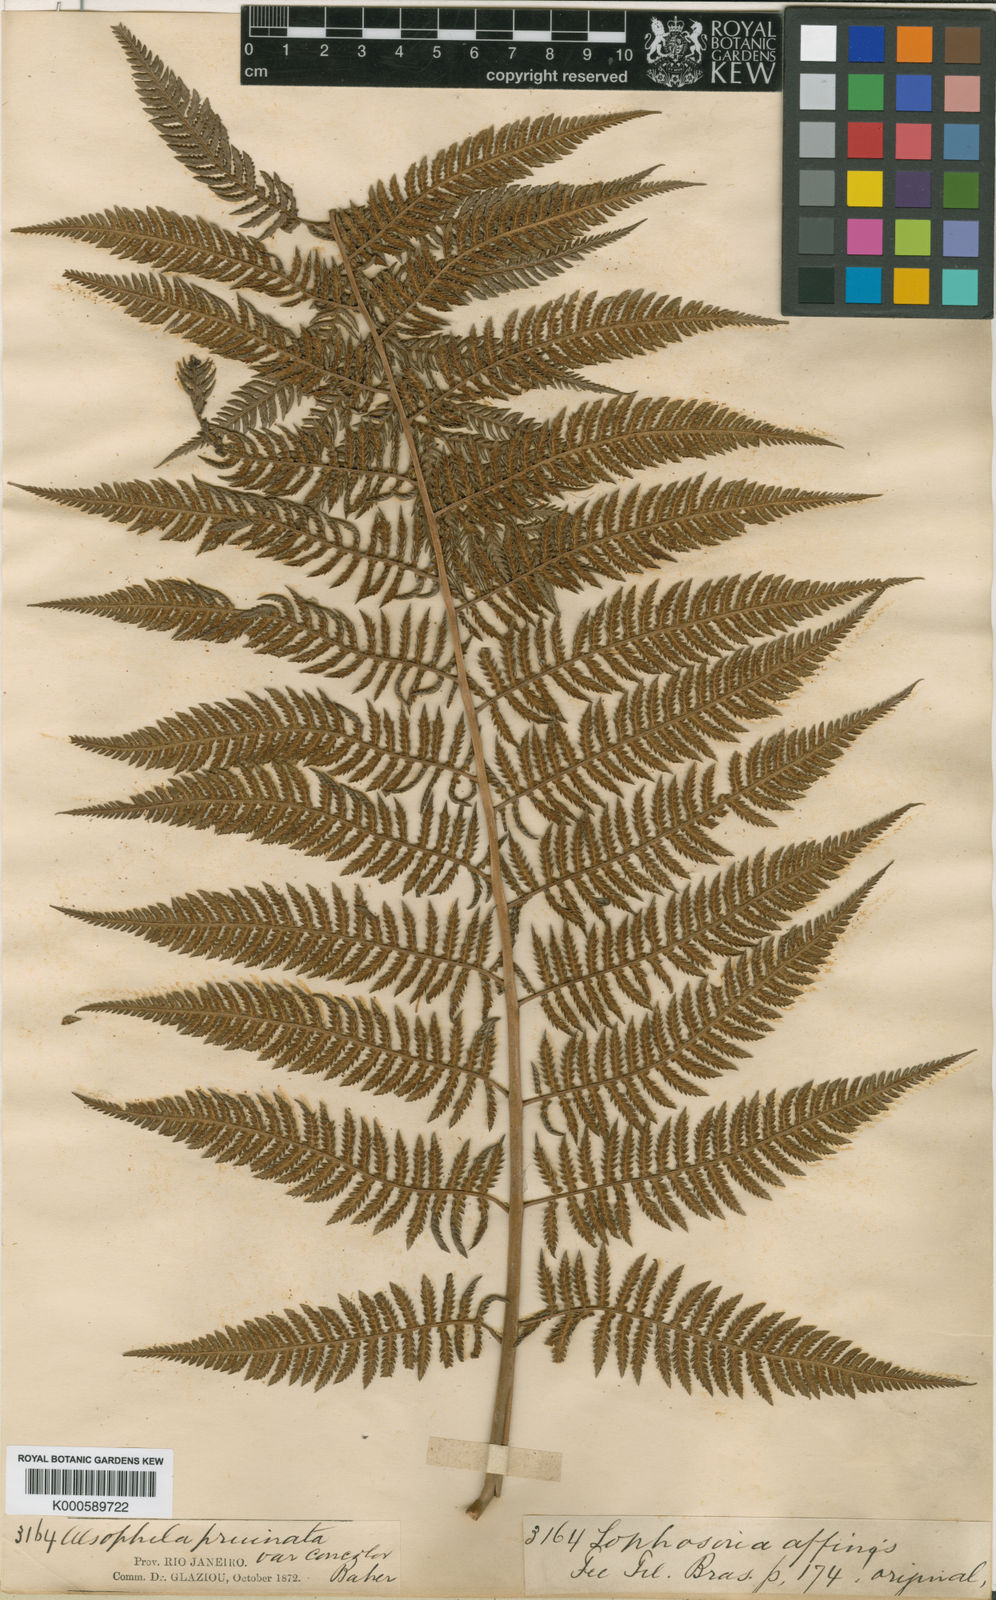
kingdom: Plantae
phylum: Tracheophyta
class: Polypodiopsida
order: Cyatheales
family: Dicksoniaceae
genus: Lophosoria
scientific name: Lophosoria quadripinnata
